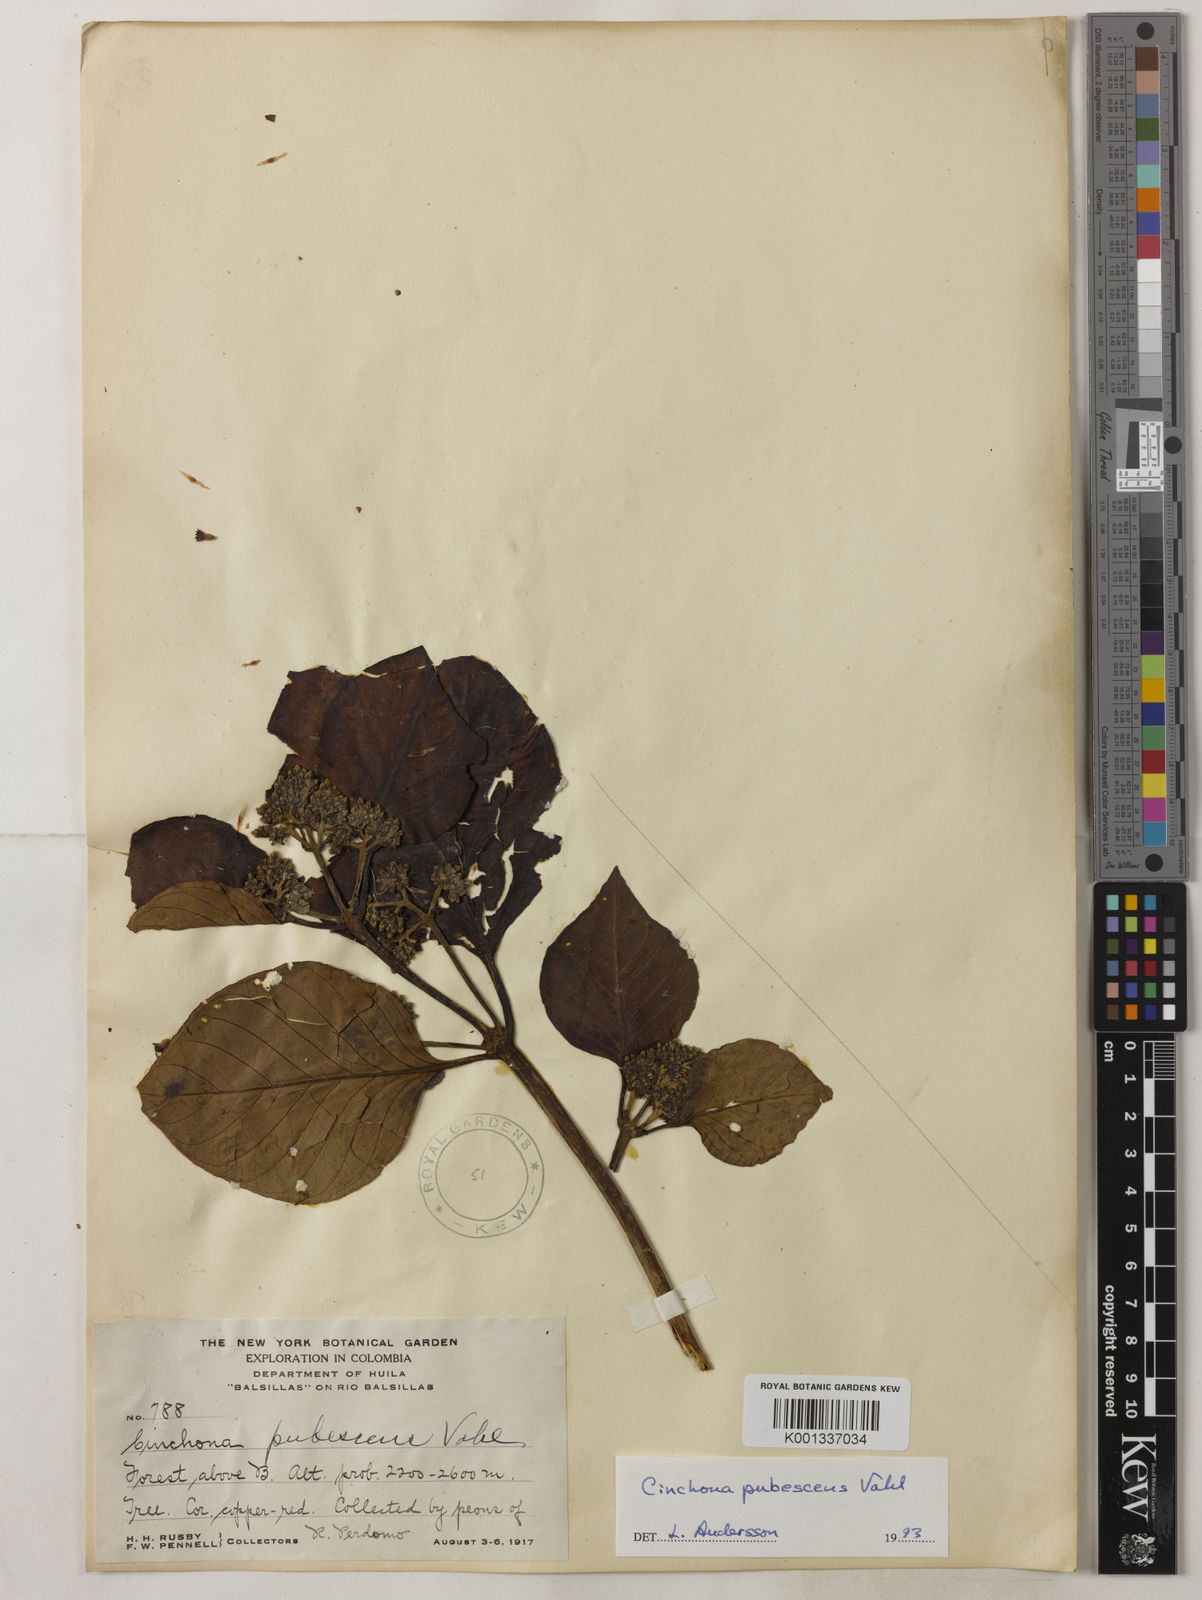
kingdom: Plantae
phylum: Tracheophyta
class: Magnoliopsida
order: Gentianales
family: Rubiaceae
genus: Cinchona
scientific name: Cinchona pubescens
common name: Quinine
